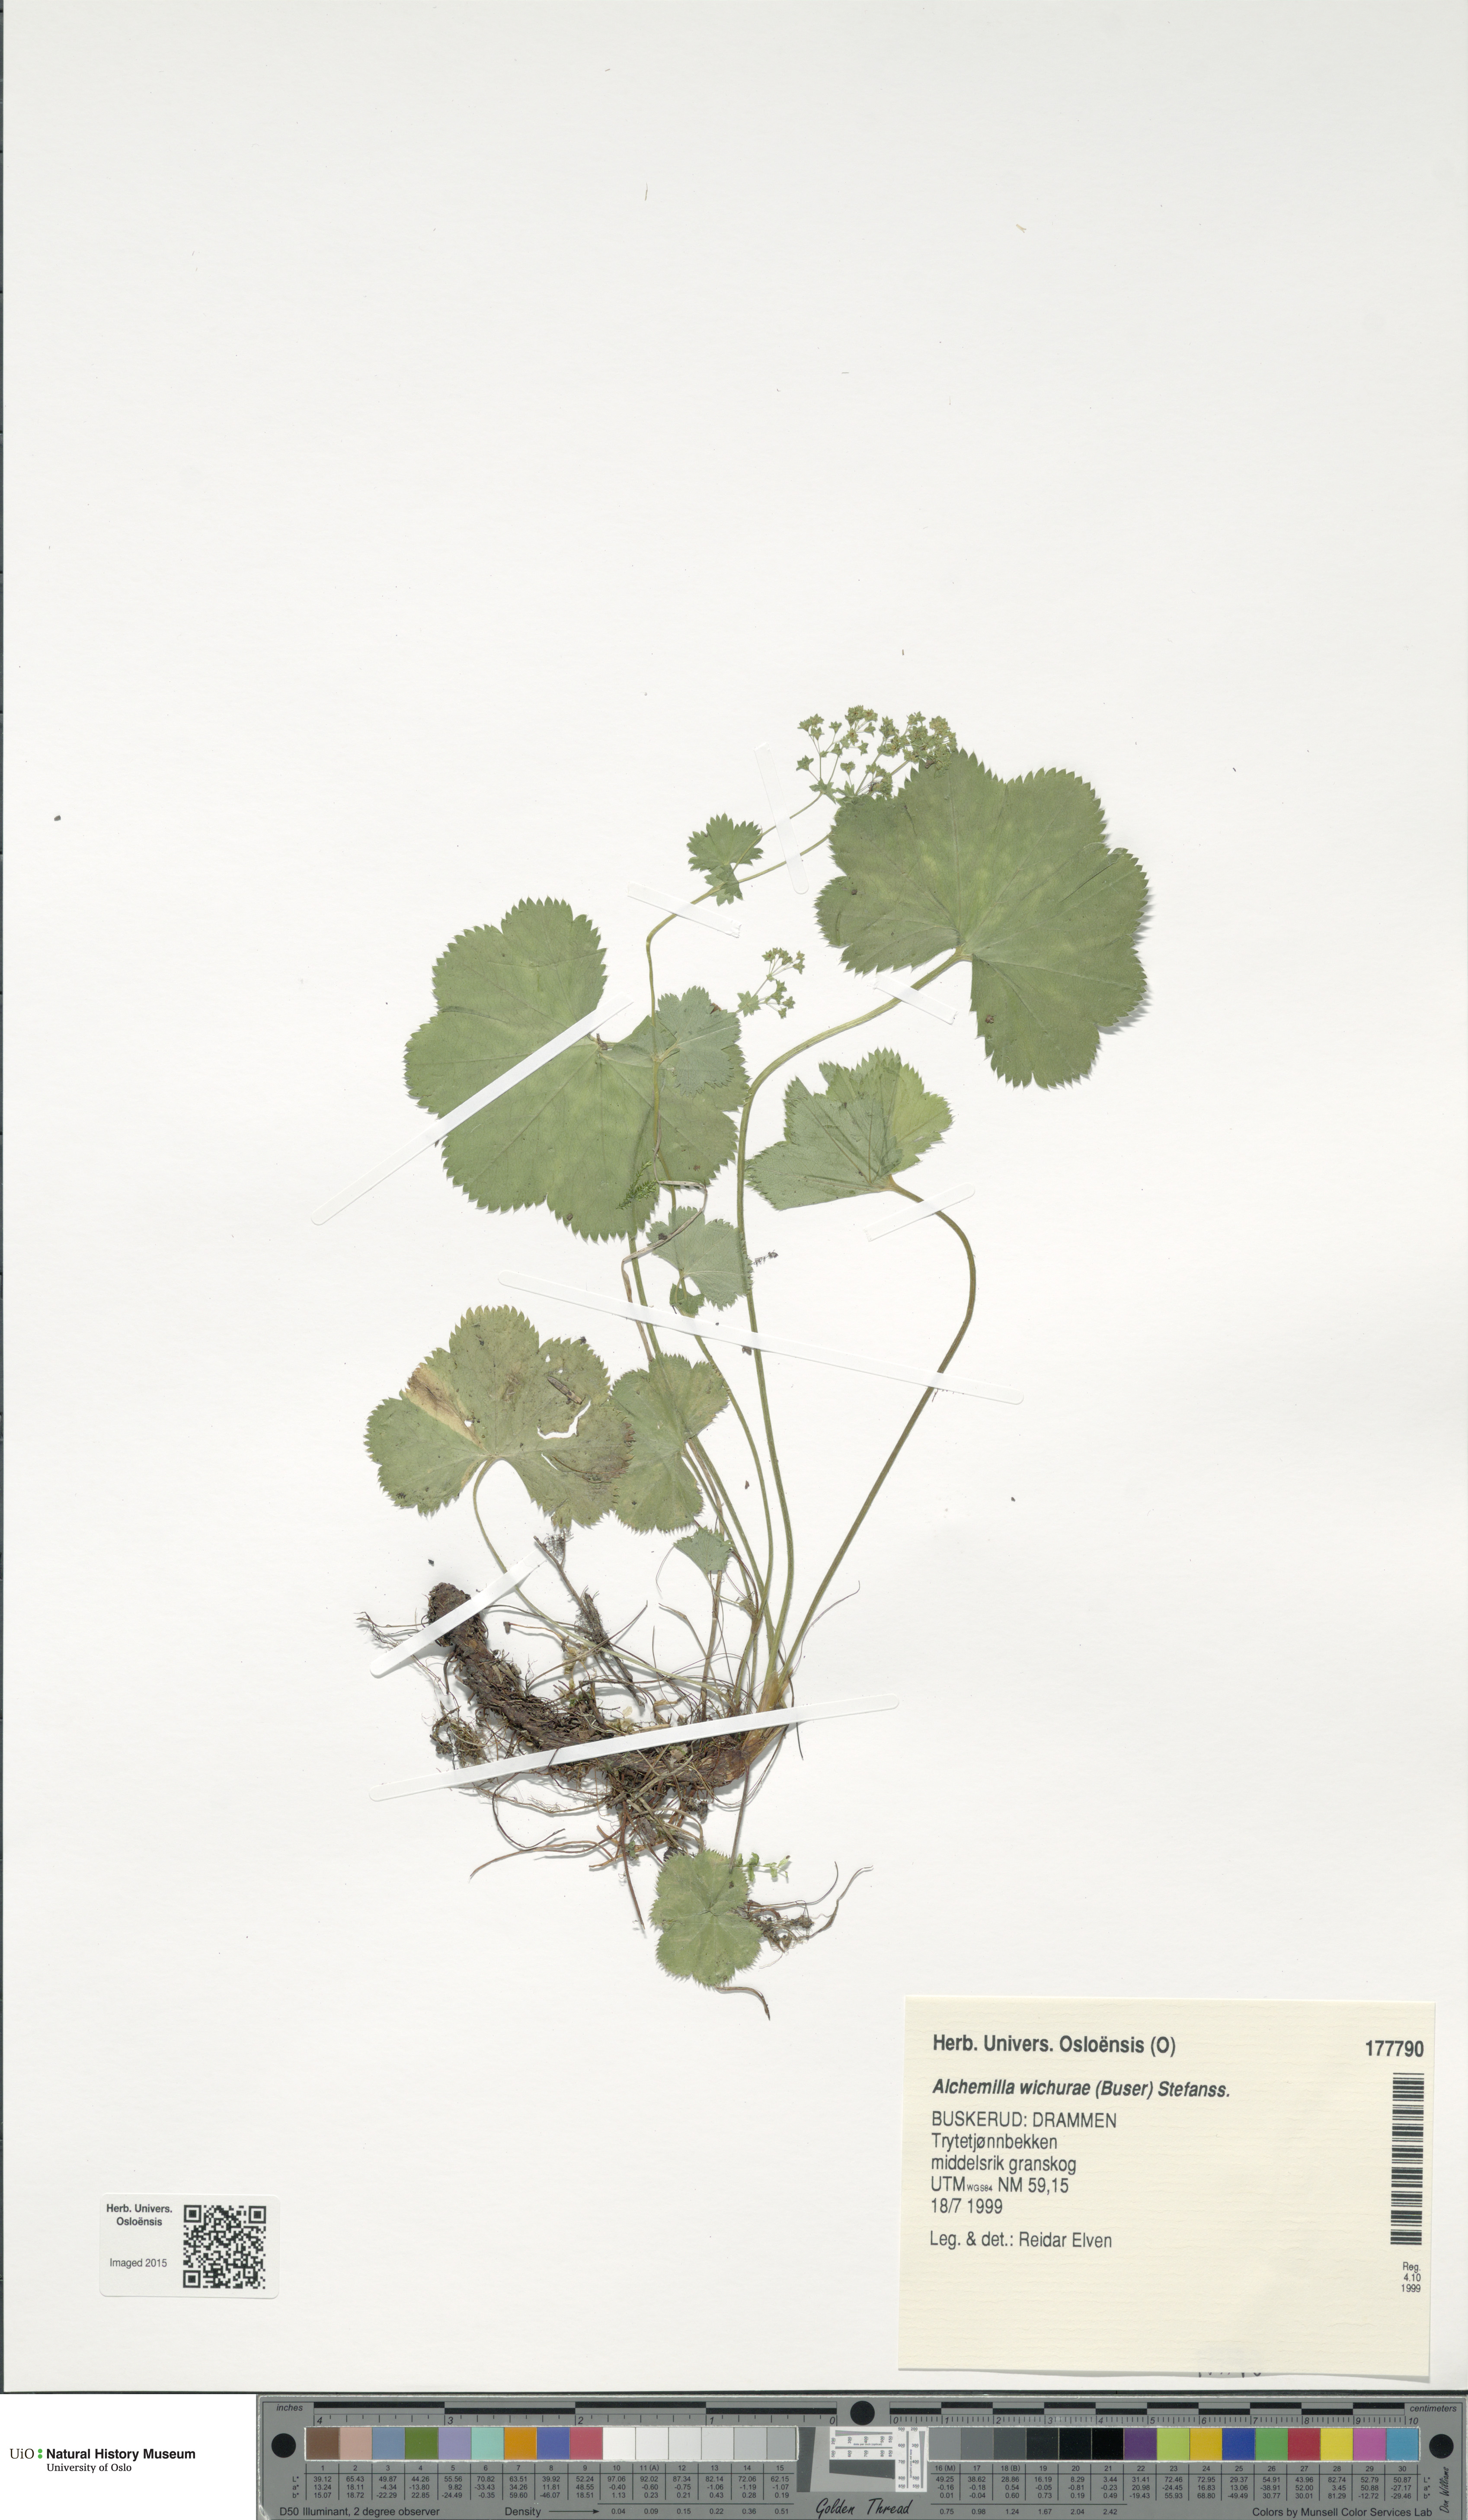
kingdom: Plantae
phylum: Tracheophyta
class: Magnoliopsida
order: Rosales
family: Rosaceae
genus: Alchemilla
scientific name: Alchemilla wichurae
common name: Rock lady's mantle
